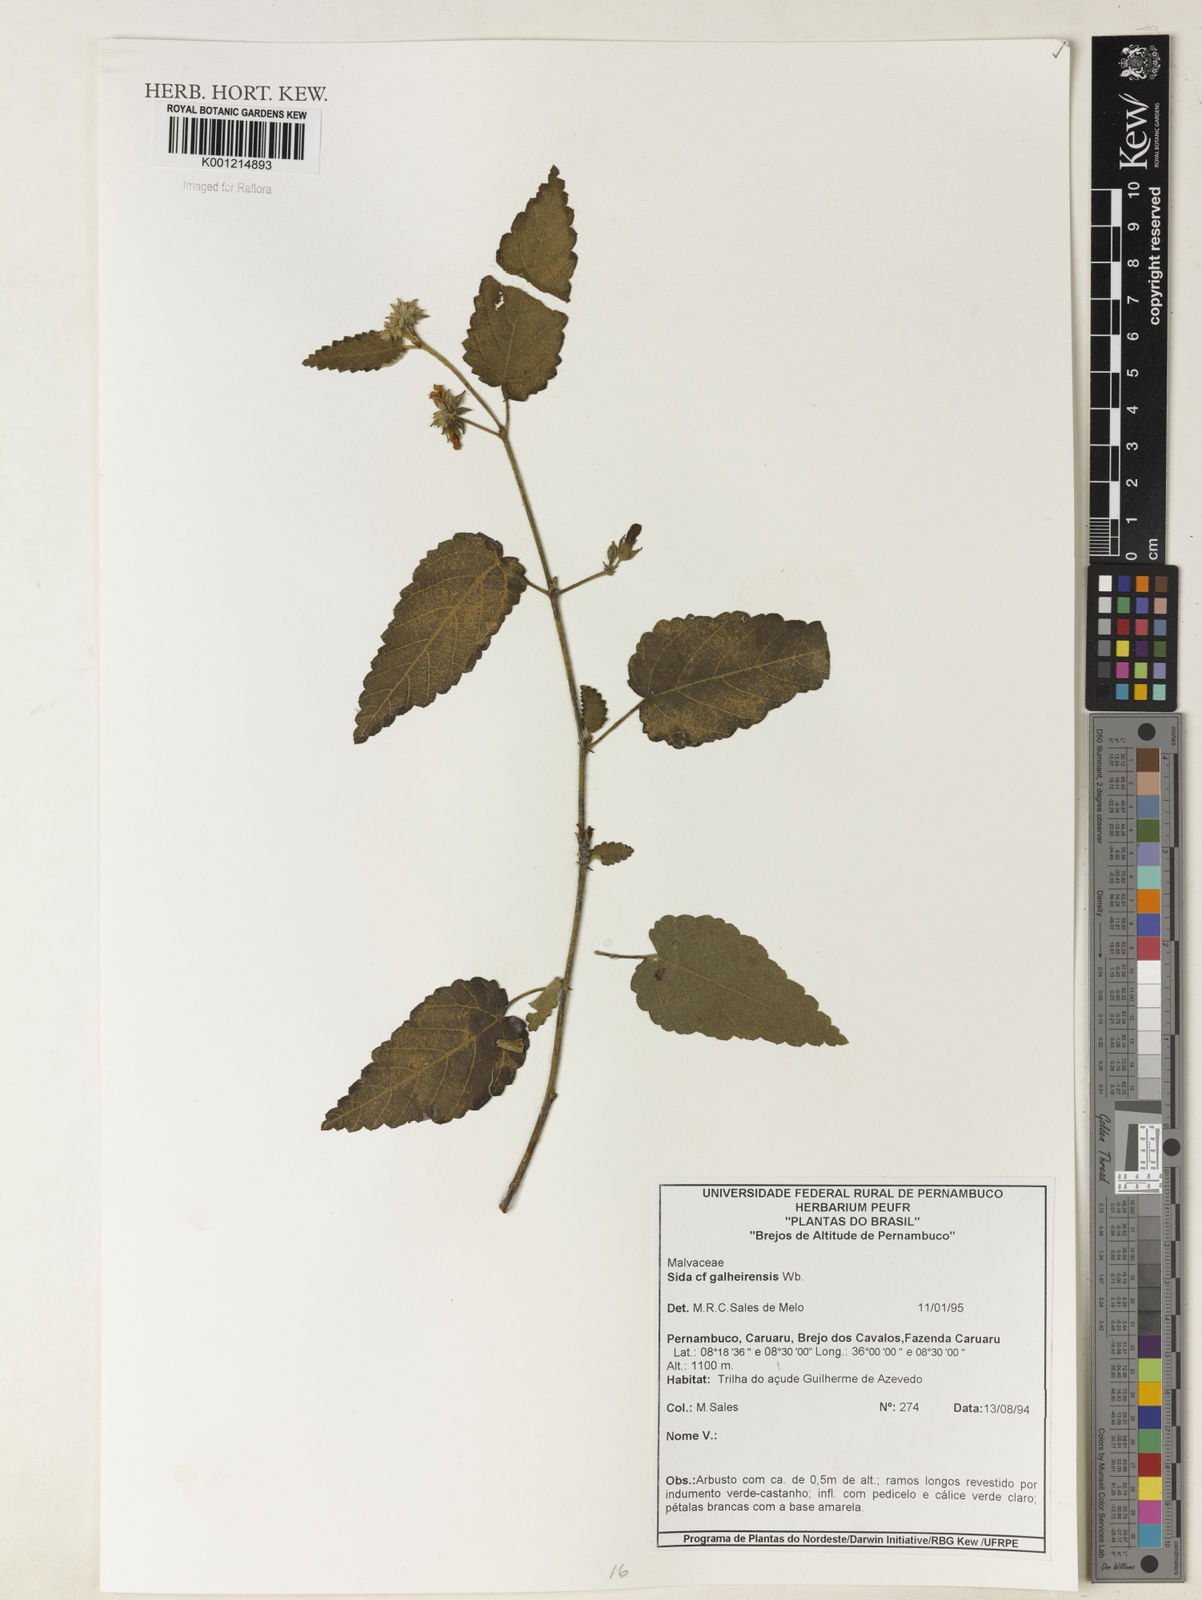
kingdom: Plantae
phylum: Tracheophyta
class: Magnoliopsida
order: Malvales
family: Malvaceae
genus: Sida
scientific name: Sida galheirensis
